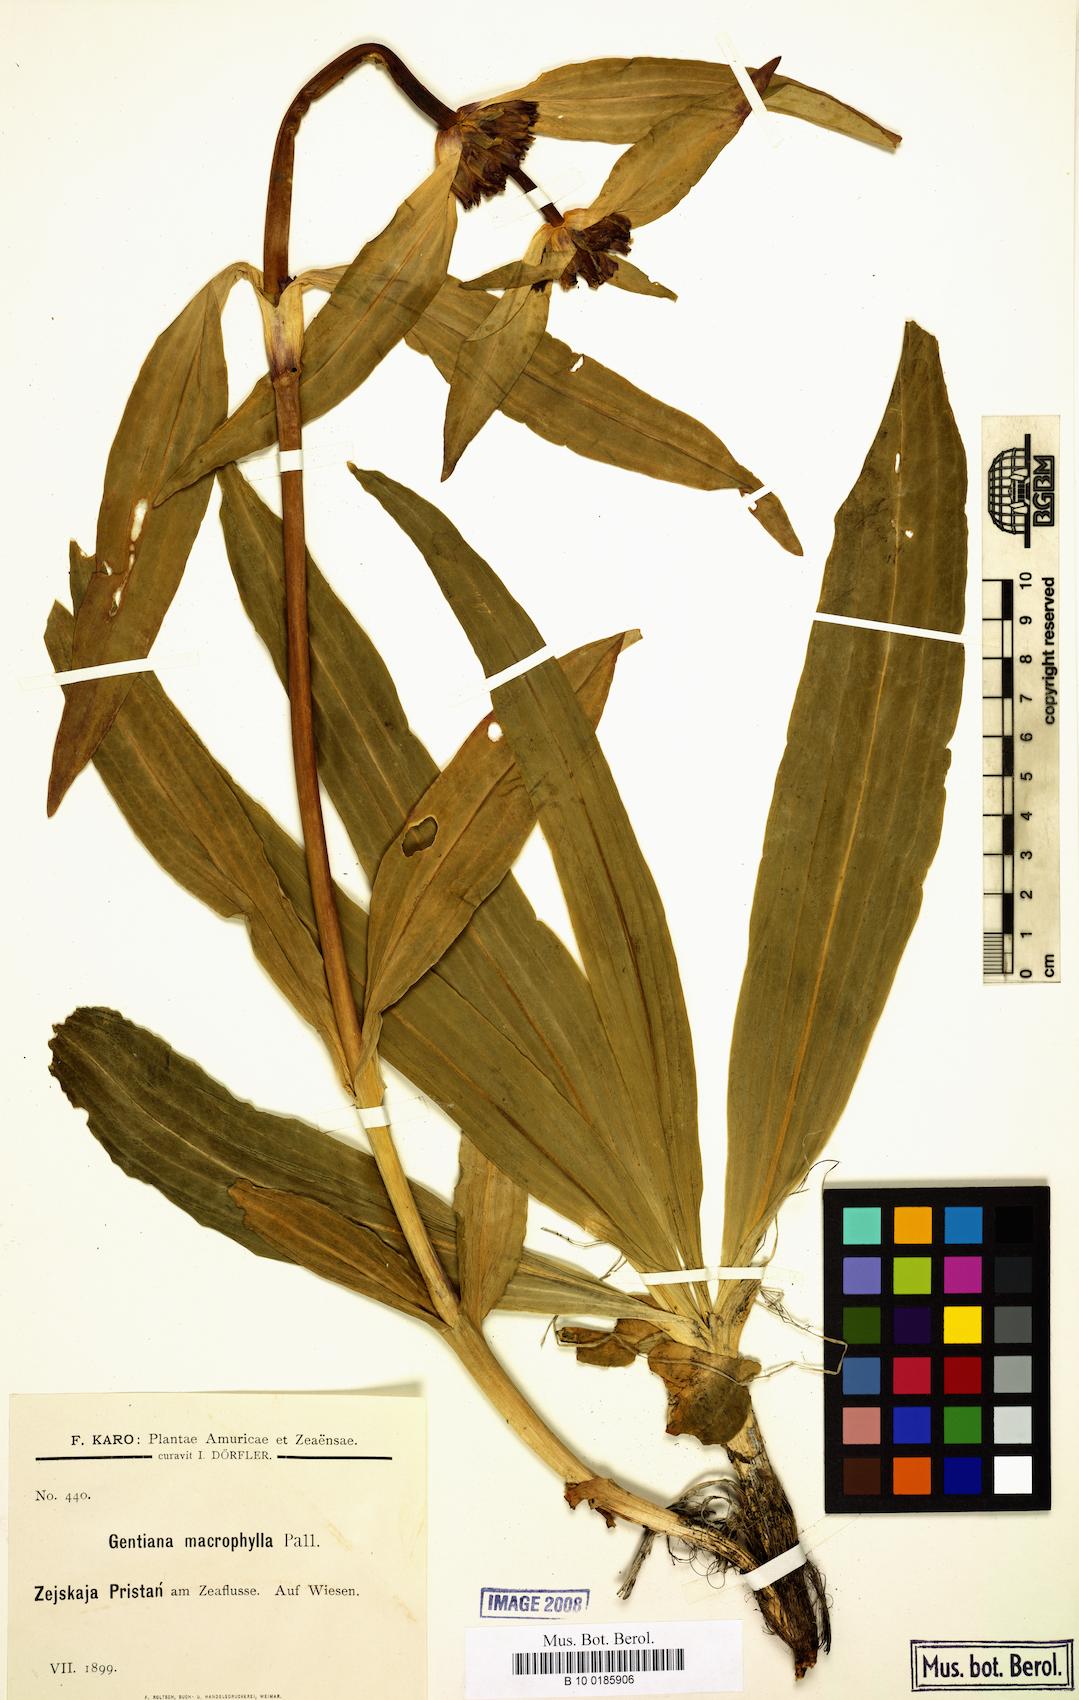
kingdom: Plantae
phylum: Tracheophyta
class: Magnoliopsida
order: Gentianales
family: Gentianaceae
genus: Gentiana
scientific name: Gentiana macrophylla
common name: Large-leaf gentian
